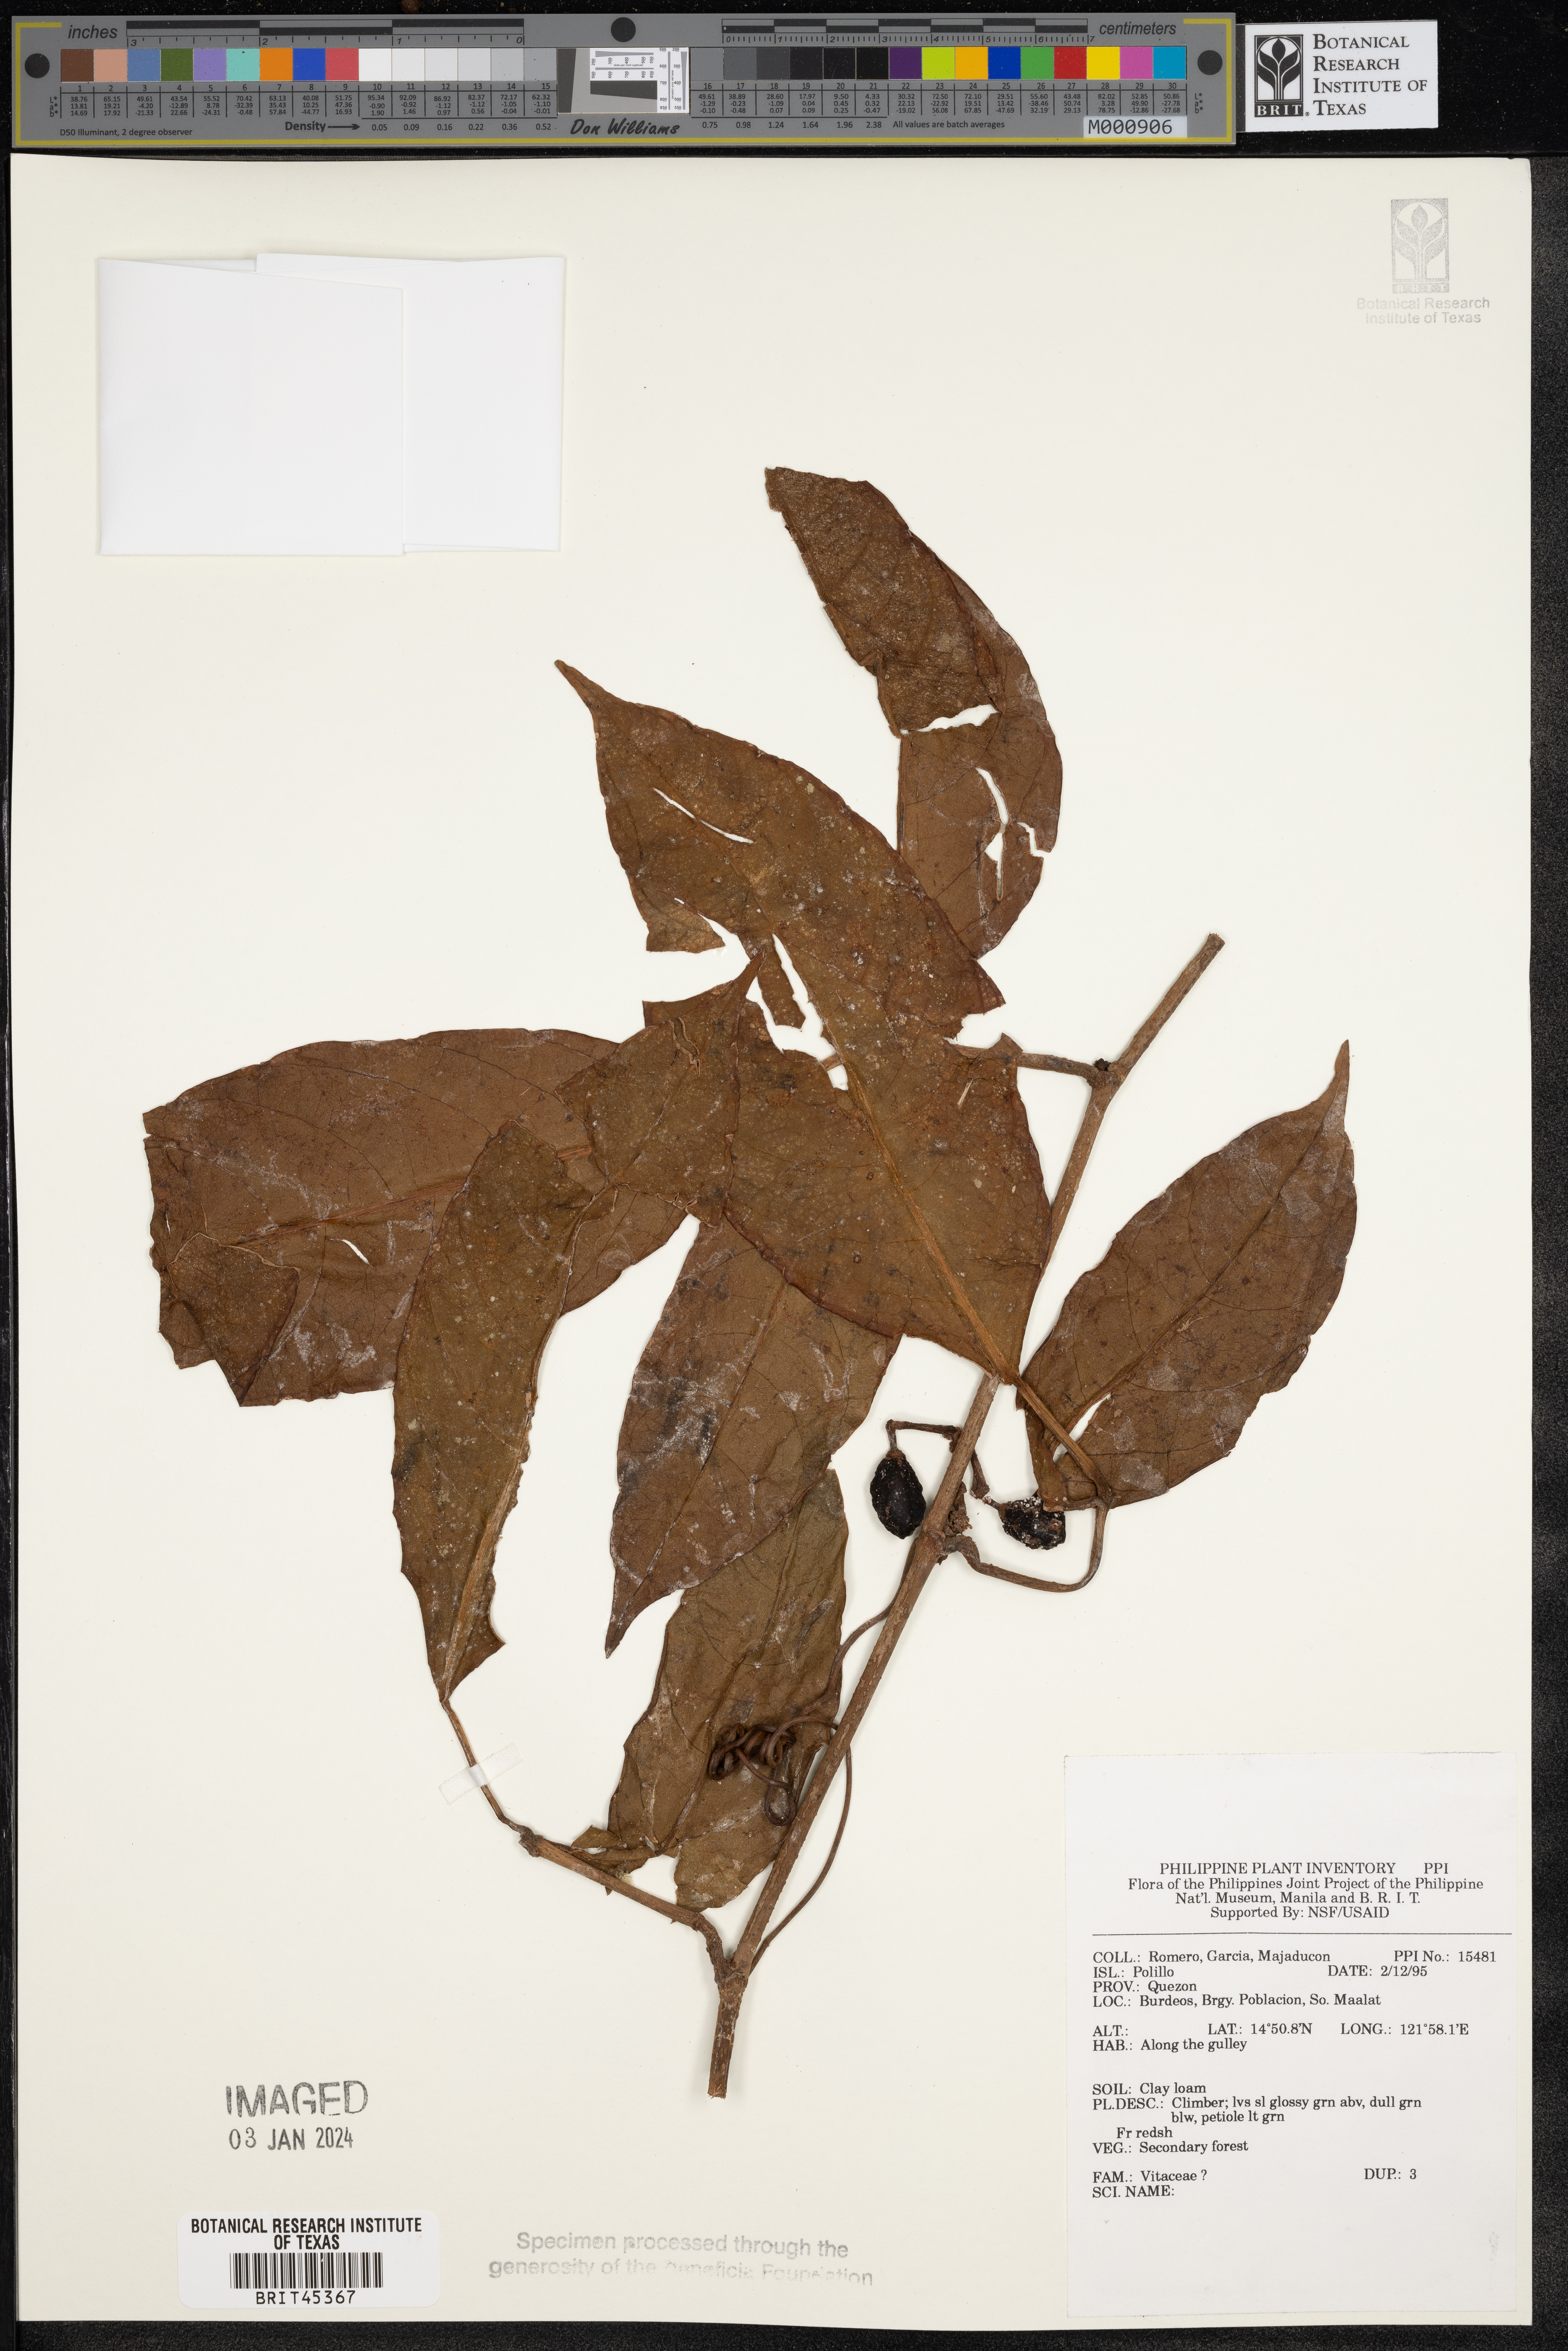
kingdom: Plantae
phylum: Tracheophyta
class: Magnoliopsida
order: Vitales
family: Vitaceae
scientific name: Vitaceae
